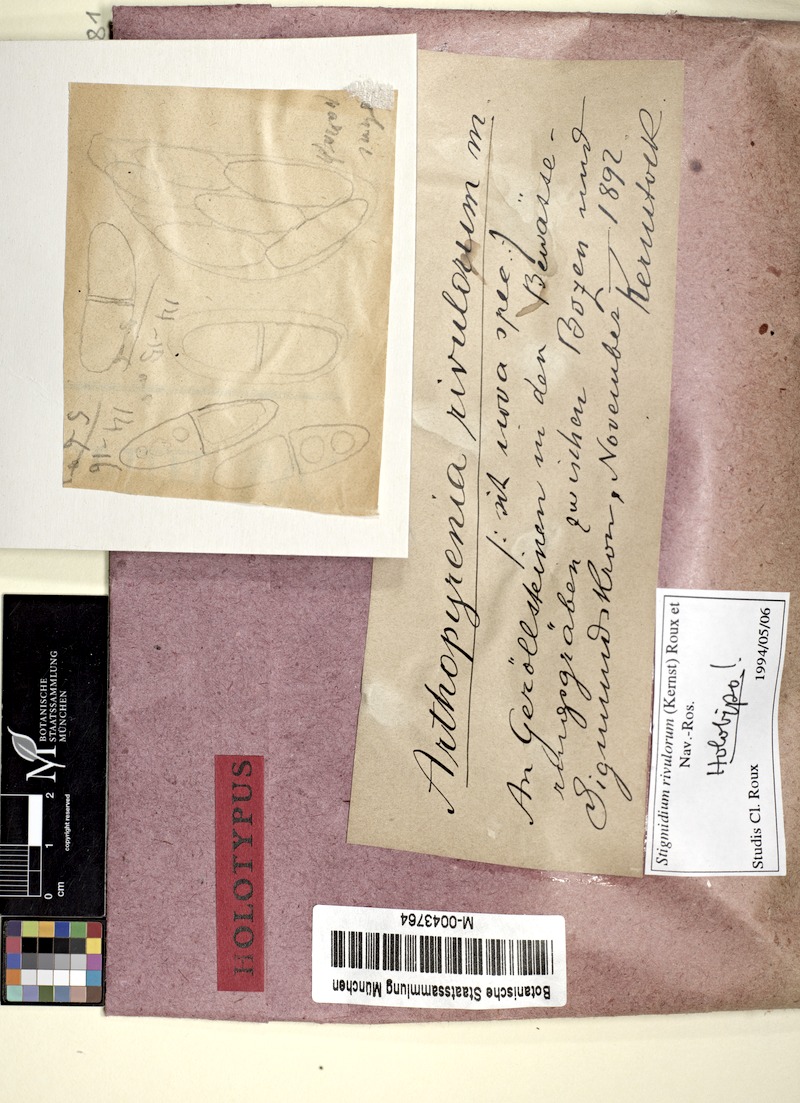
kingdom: Fungi
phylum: Ascomycota
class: Dothideomycetes
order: Mycosphaerellales
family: Mycosphaerellaceae
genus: Stigmidium
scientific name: Stigmidium rivulorum
